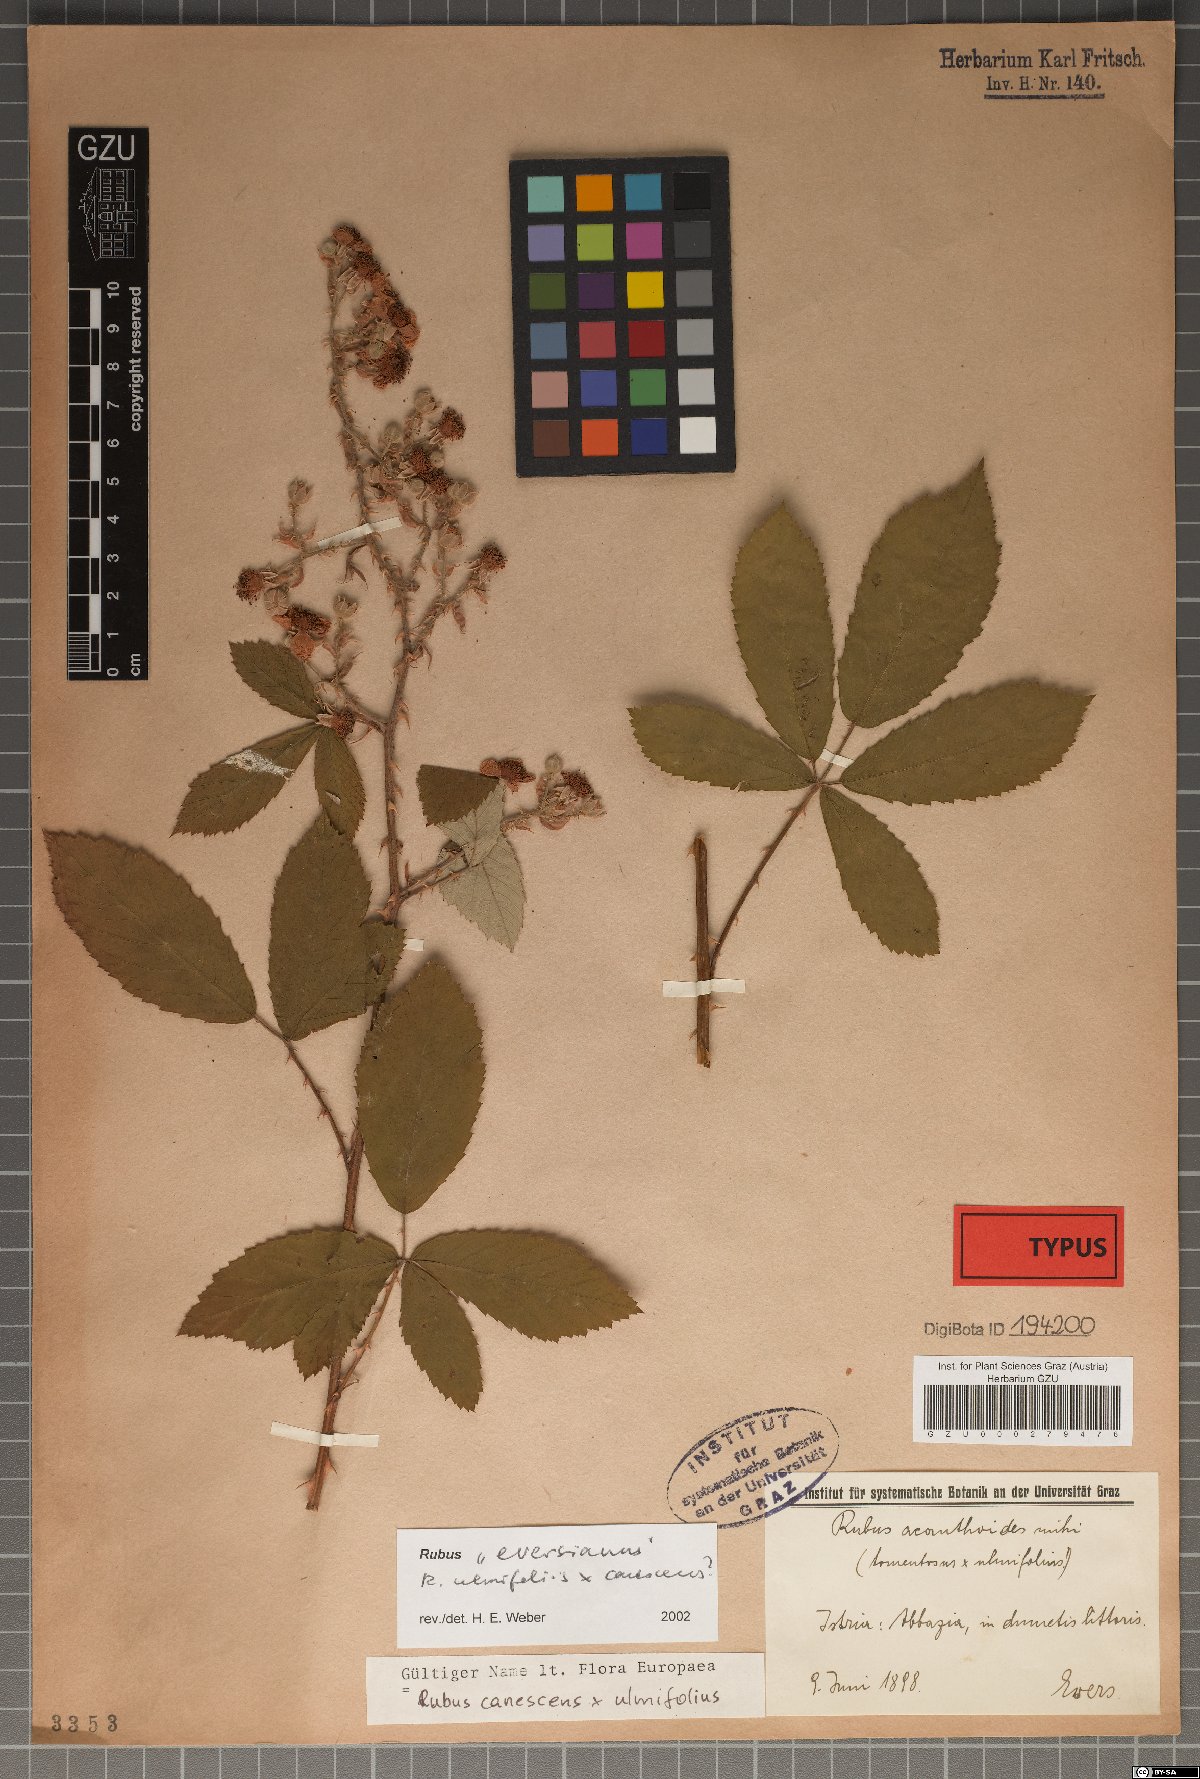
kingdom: Plantae
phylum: Tracheophyta
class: Magnoliopsida
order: Rosales
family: Rosaceae
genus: Rubus
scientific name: Rubus ancanthoides
